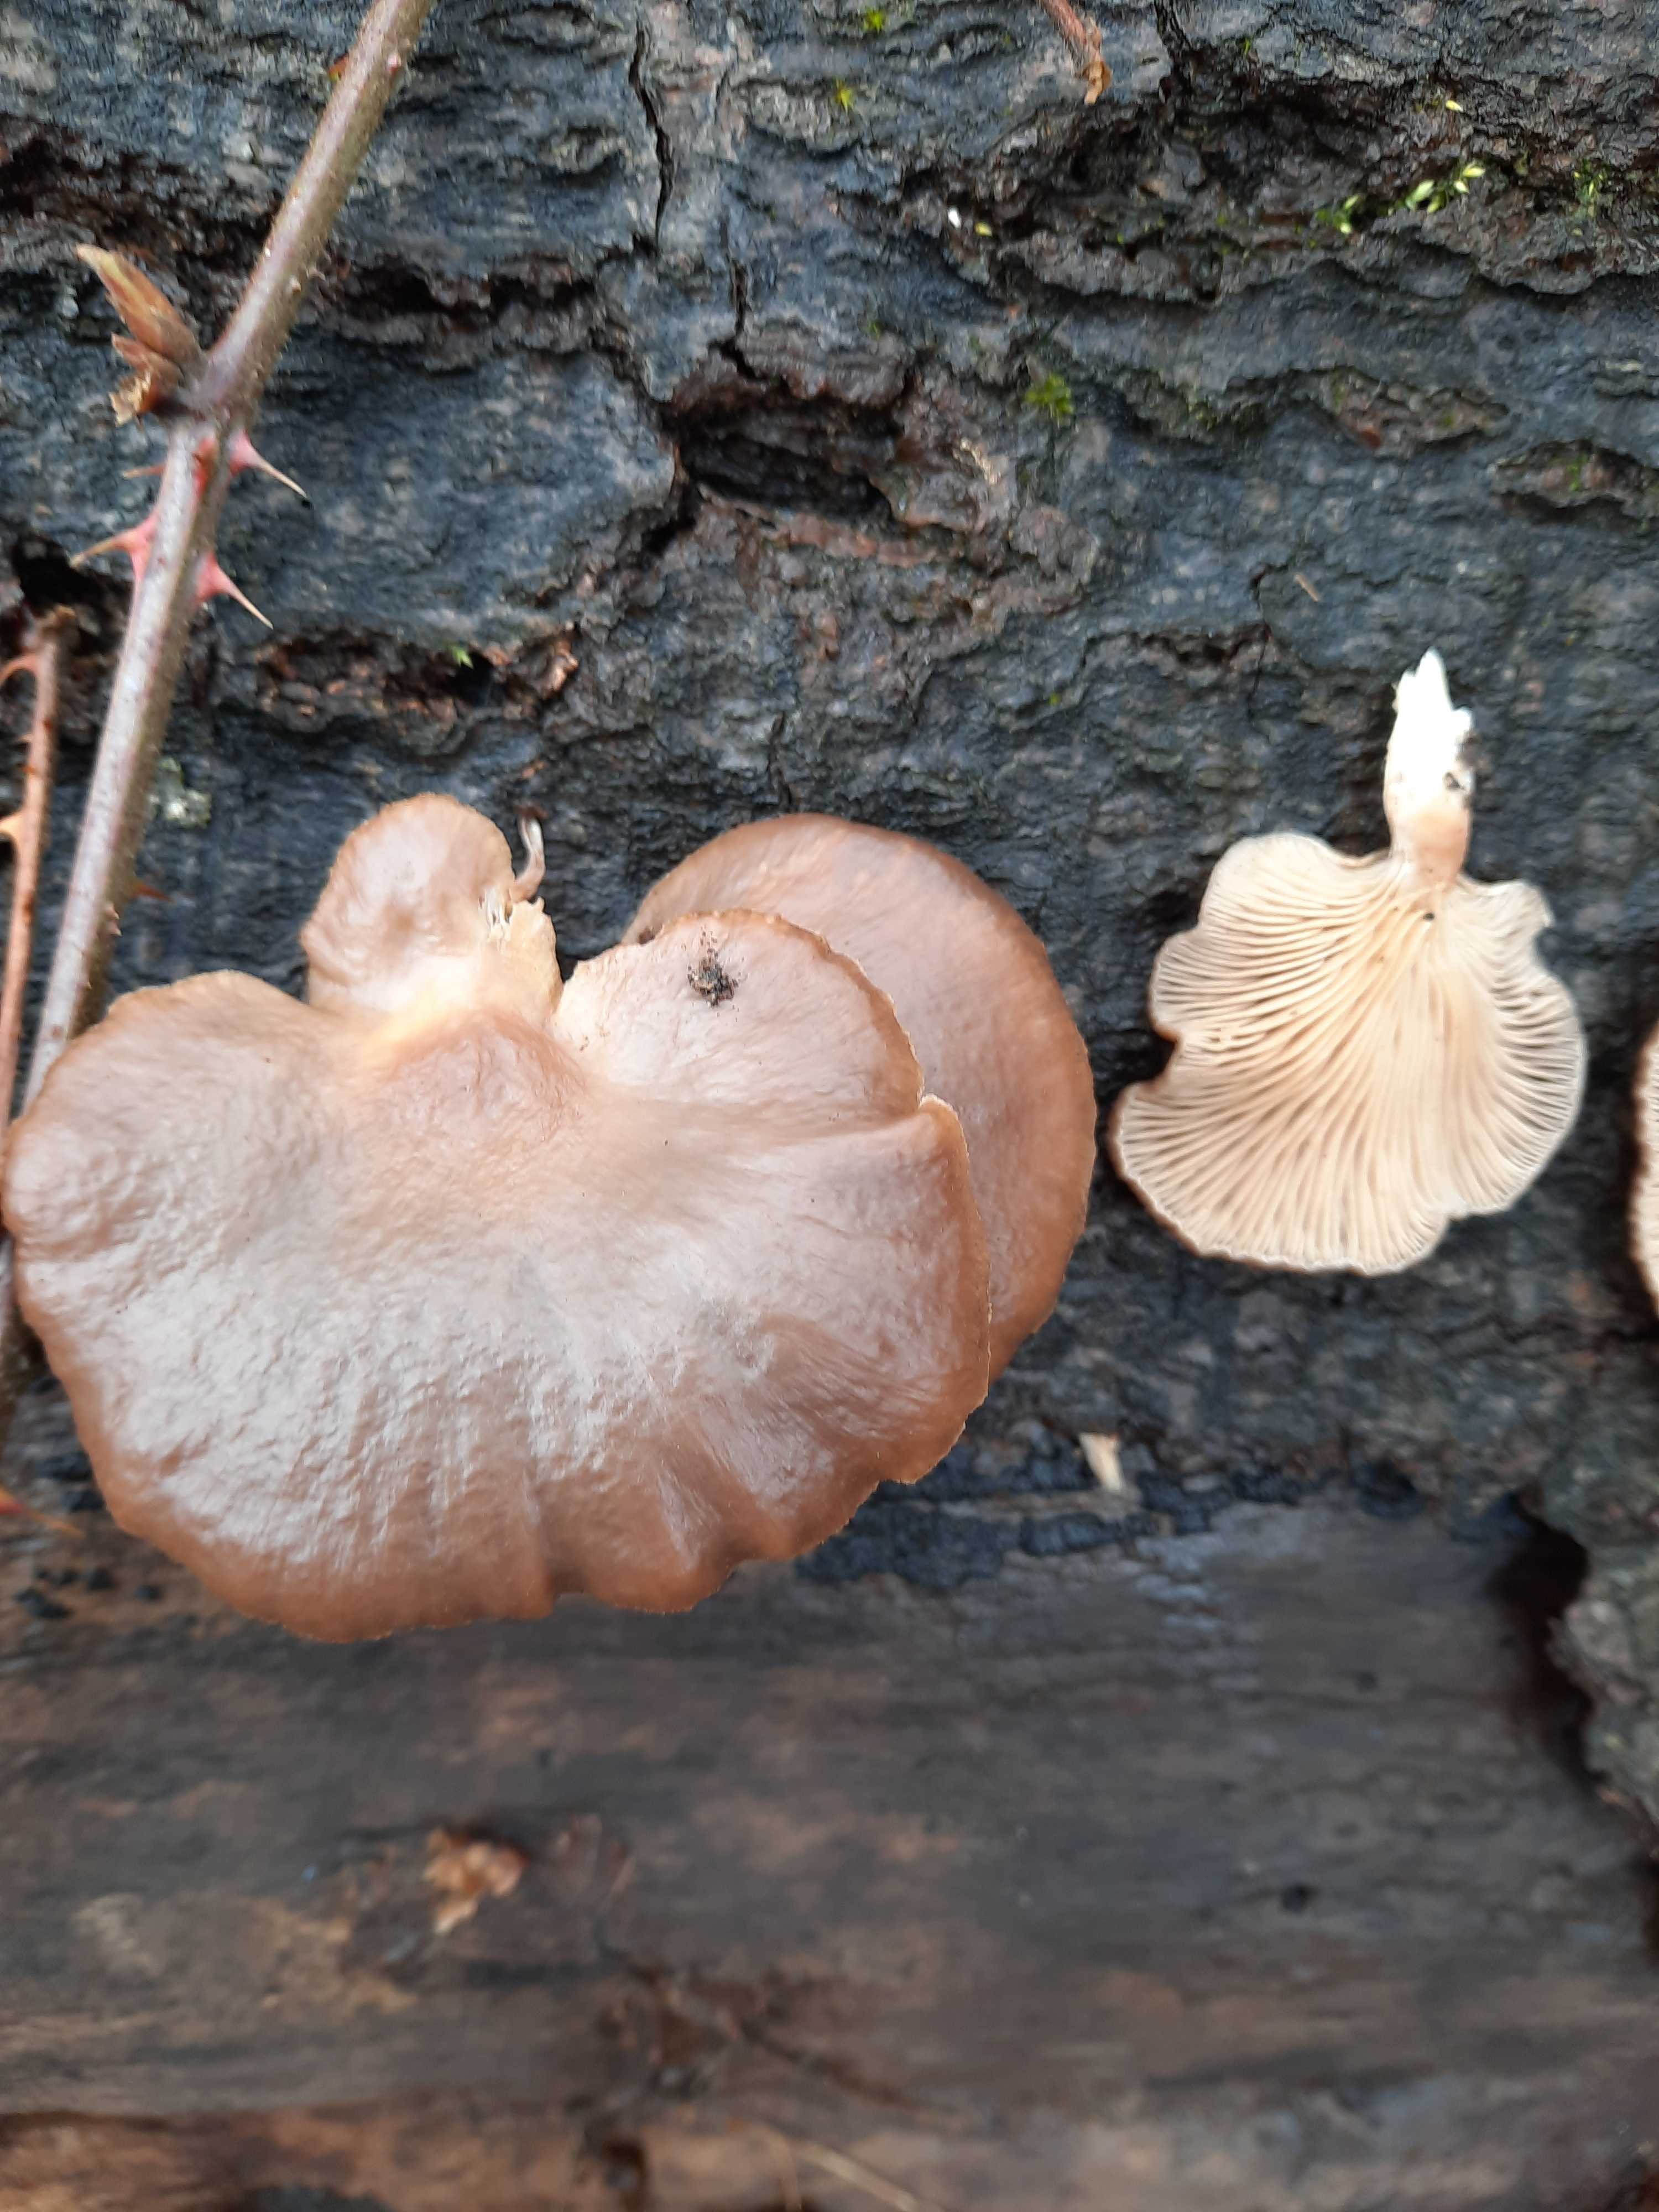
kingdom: Fungi
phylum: Basidiomycota
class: Agaricomycetes
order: Agaricales
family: Pleurotaceae
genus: Pleurotus
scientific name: Pleurotus ostreatus
